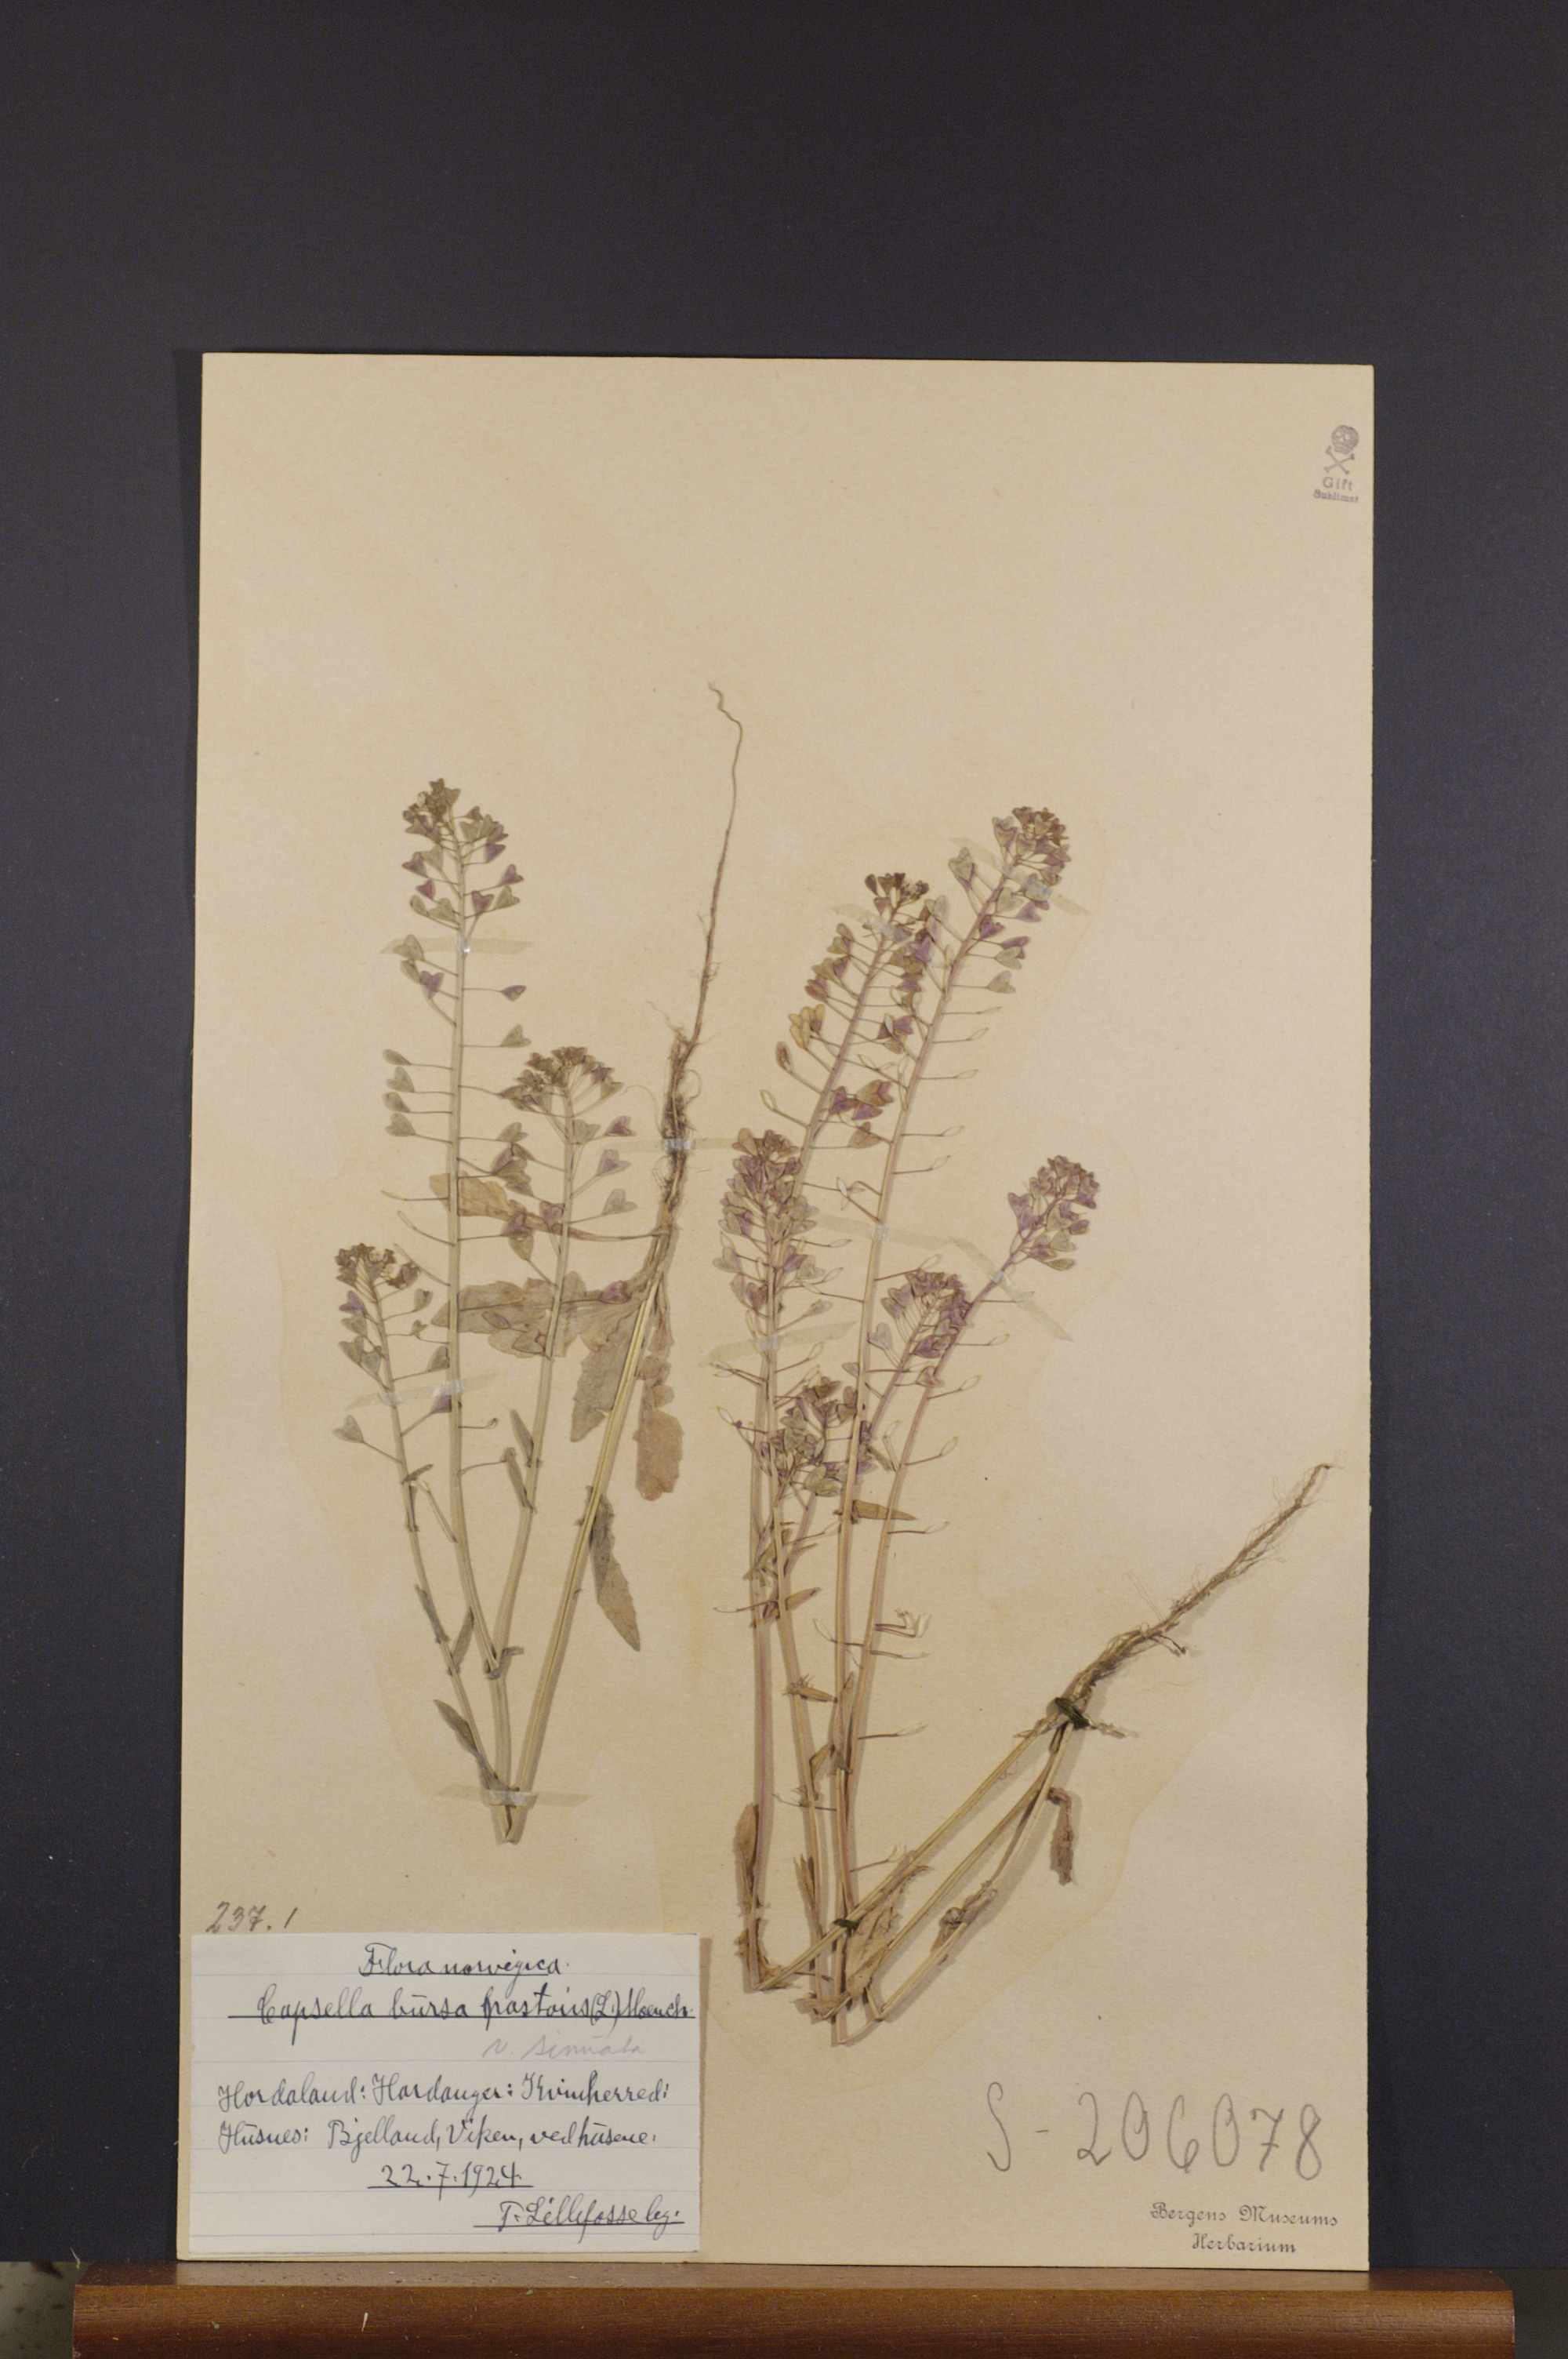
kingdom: Plantae
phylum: Tracheophyta
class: Magnoliopsida
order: Brassicales
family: Brassicaceae
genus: Capsella
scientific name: Capsella bursa-pastoris
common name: Shepherd's purse
